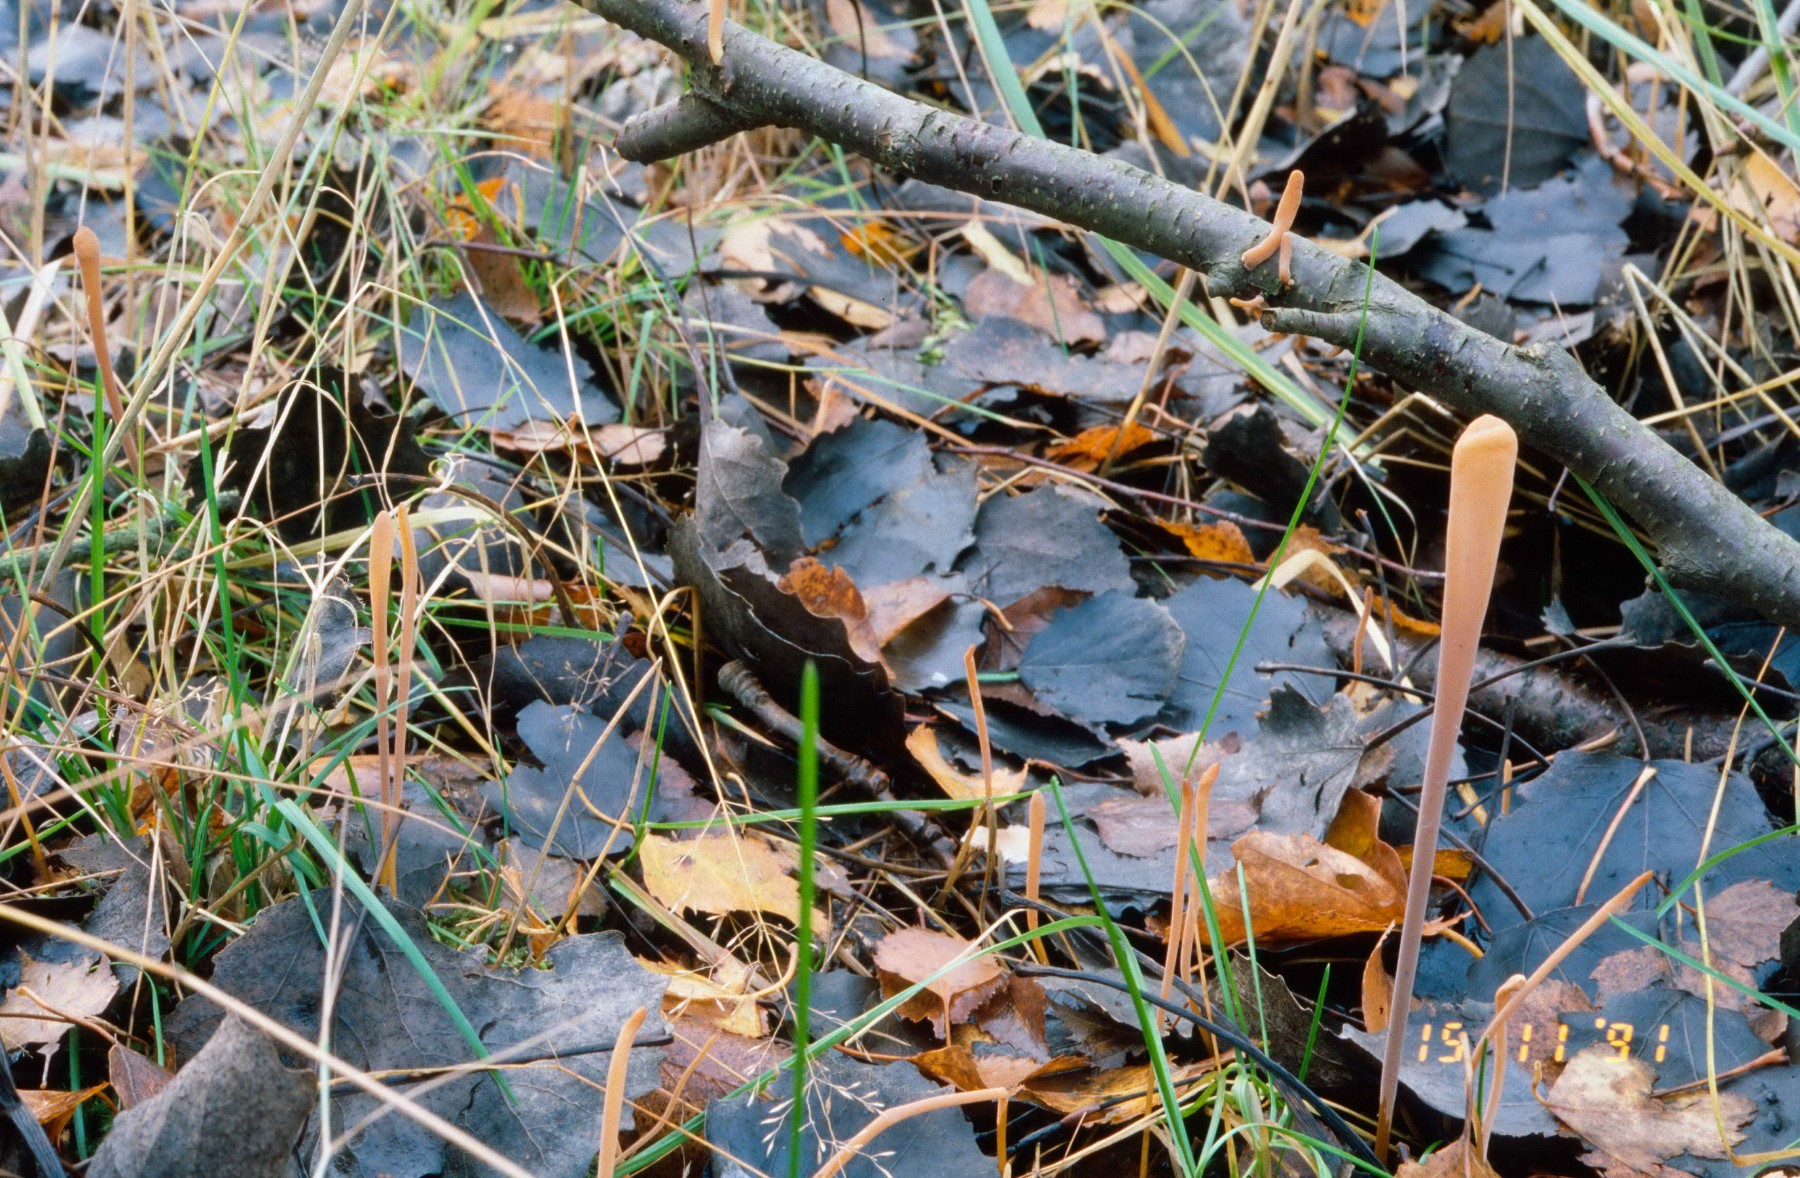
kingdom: Fungi
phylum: Basidiomycota
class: Agaricomycetes
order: Agaricales
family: Typhulaceae
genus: Typhula
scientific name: Typhula fistulosa
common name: pibet rørkølle
